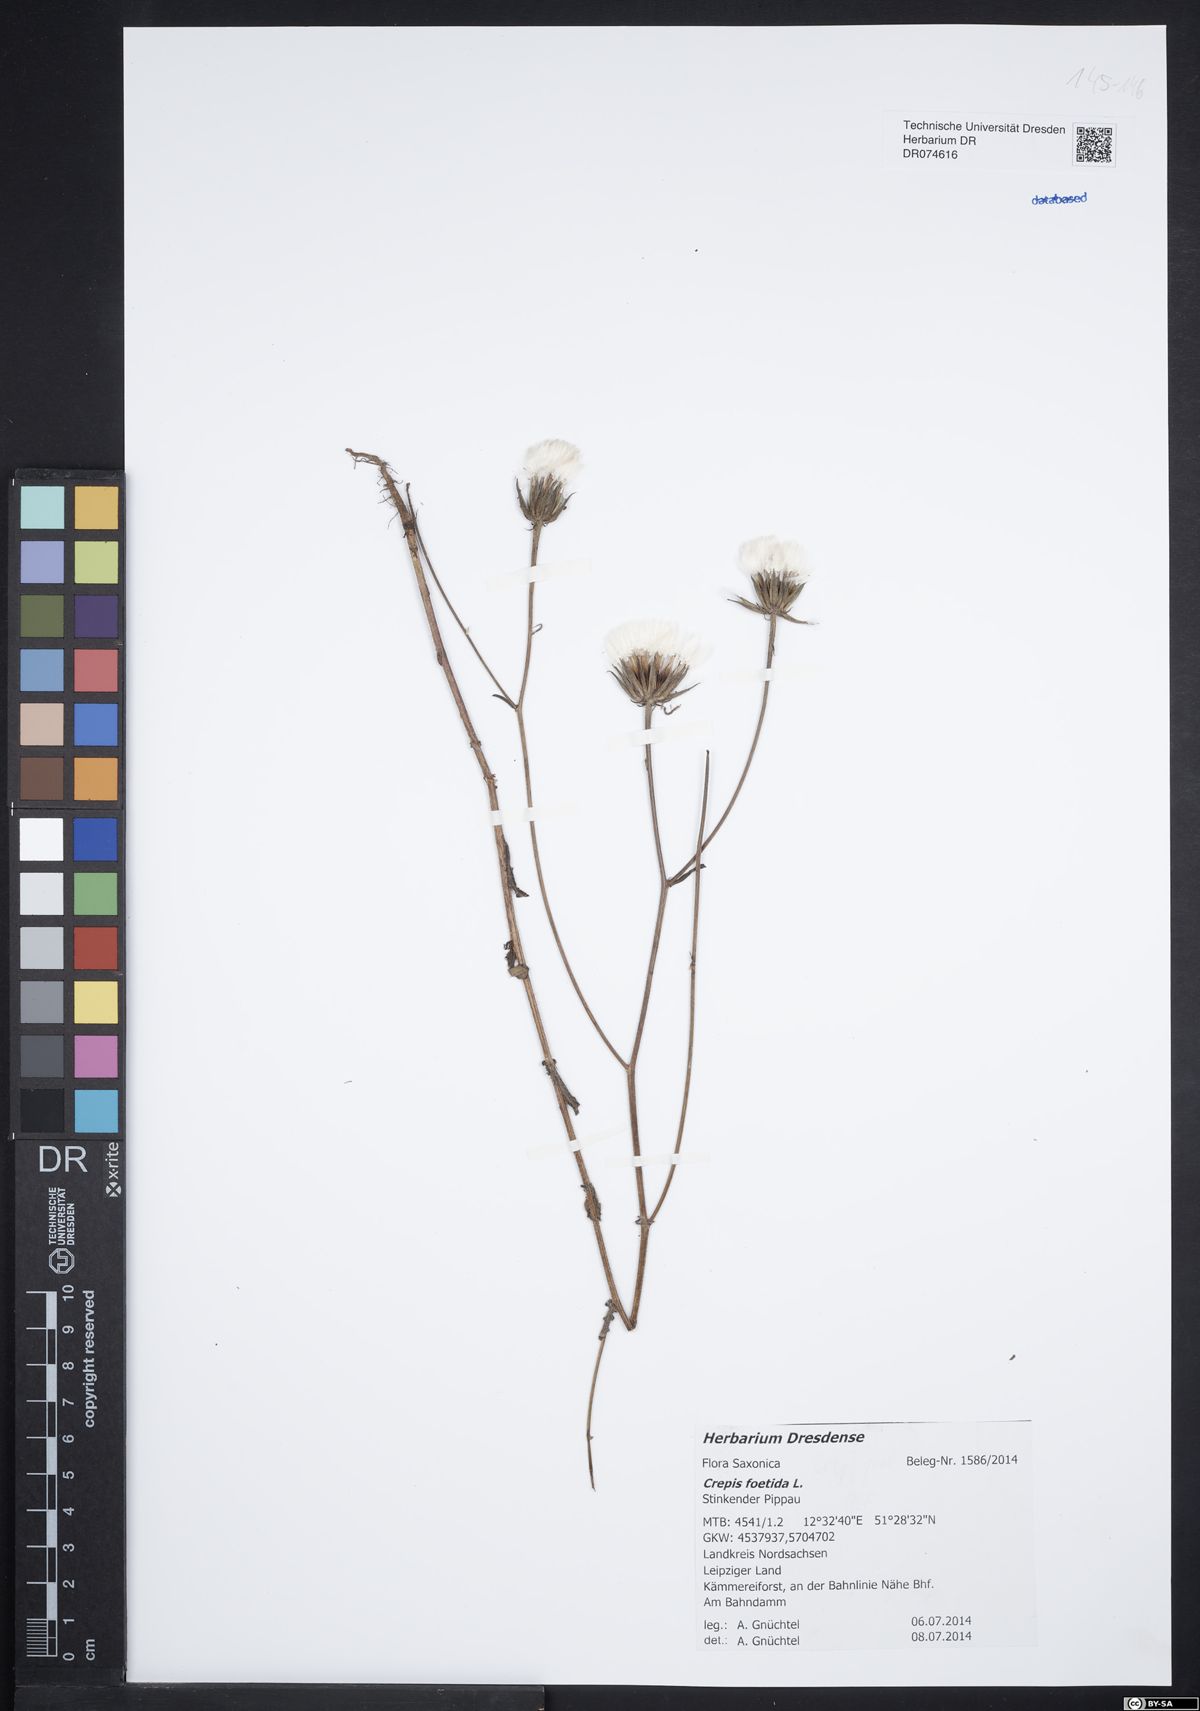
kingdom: Plantae
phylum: Tracheophyta
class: Magnoliopsida
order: Asterales
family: Asteraceae
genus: Crepis
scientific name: Crepis foetida
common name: Stinking hawk's-beard
